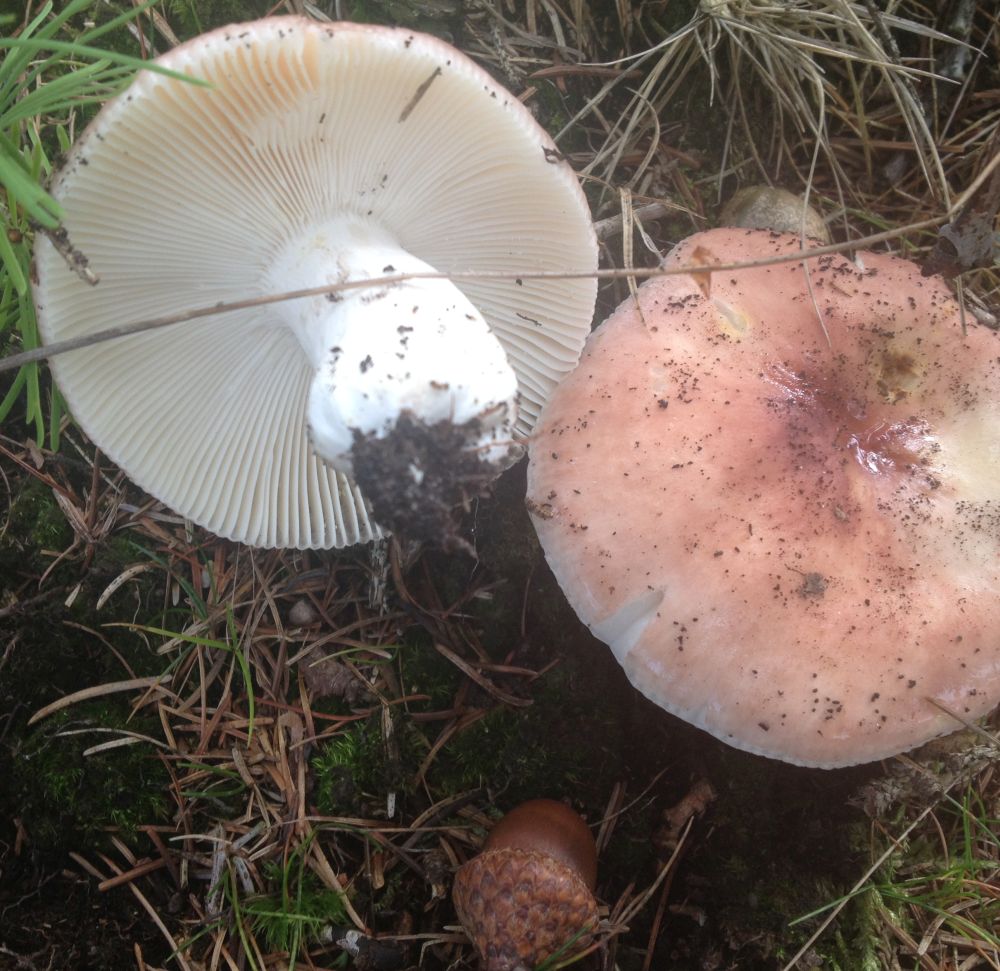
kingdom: Fungi
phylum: Basidiomycota
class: Agaricomycetes
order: Russulales
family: Russulaceae
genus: Russula
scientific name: Russula vesca
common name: spiselig skørhat
